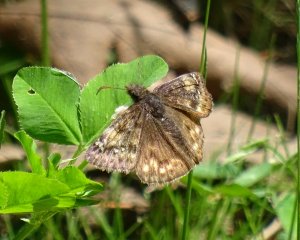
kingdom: Animalia
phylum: Arthropoda
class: Insecta
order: Lepidoptera
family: Hesperiidae
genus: Gesta
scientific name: Gesta
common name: Juvenal's Duskywing
